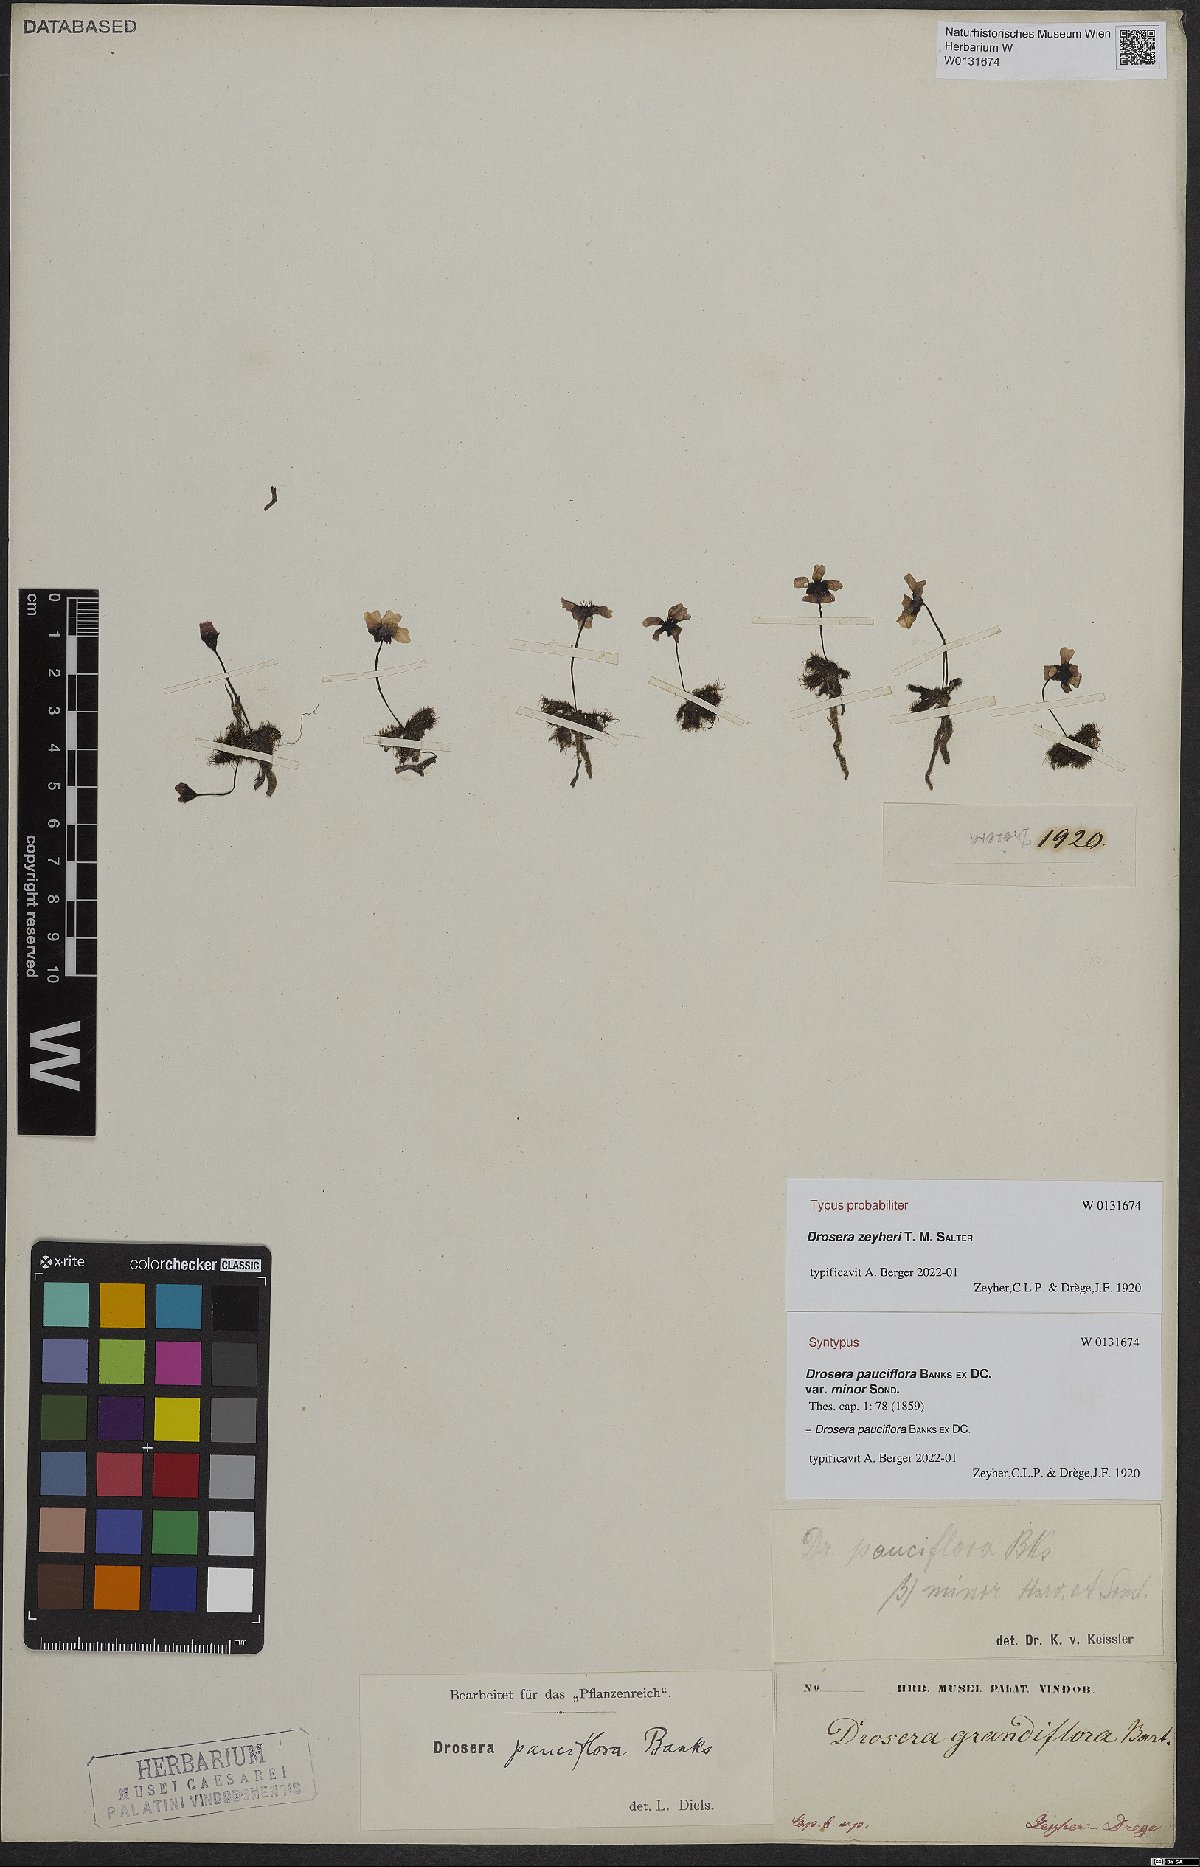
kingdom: Plantae
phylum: Tracheophyta
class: Magnoliopsida
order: Caryophyllales
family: Droseraceae
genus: Drosera
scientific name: Drosera cistiflora
